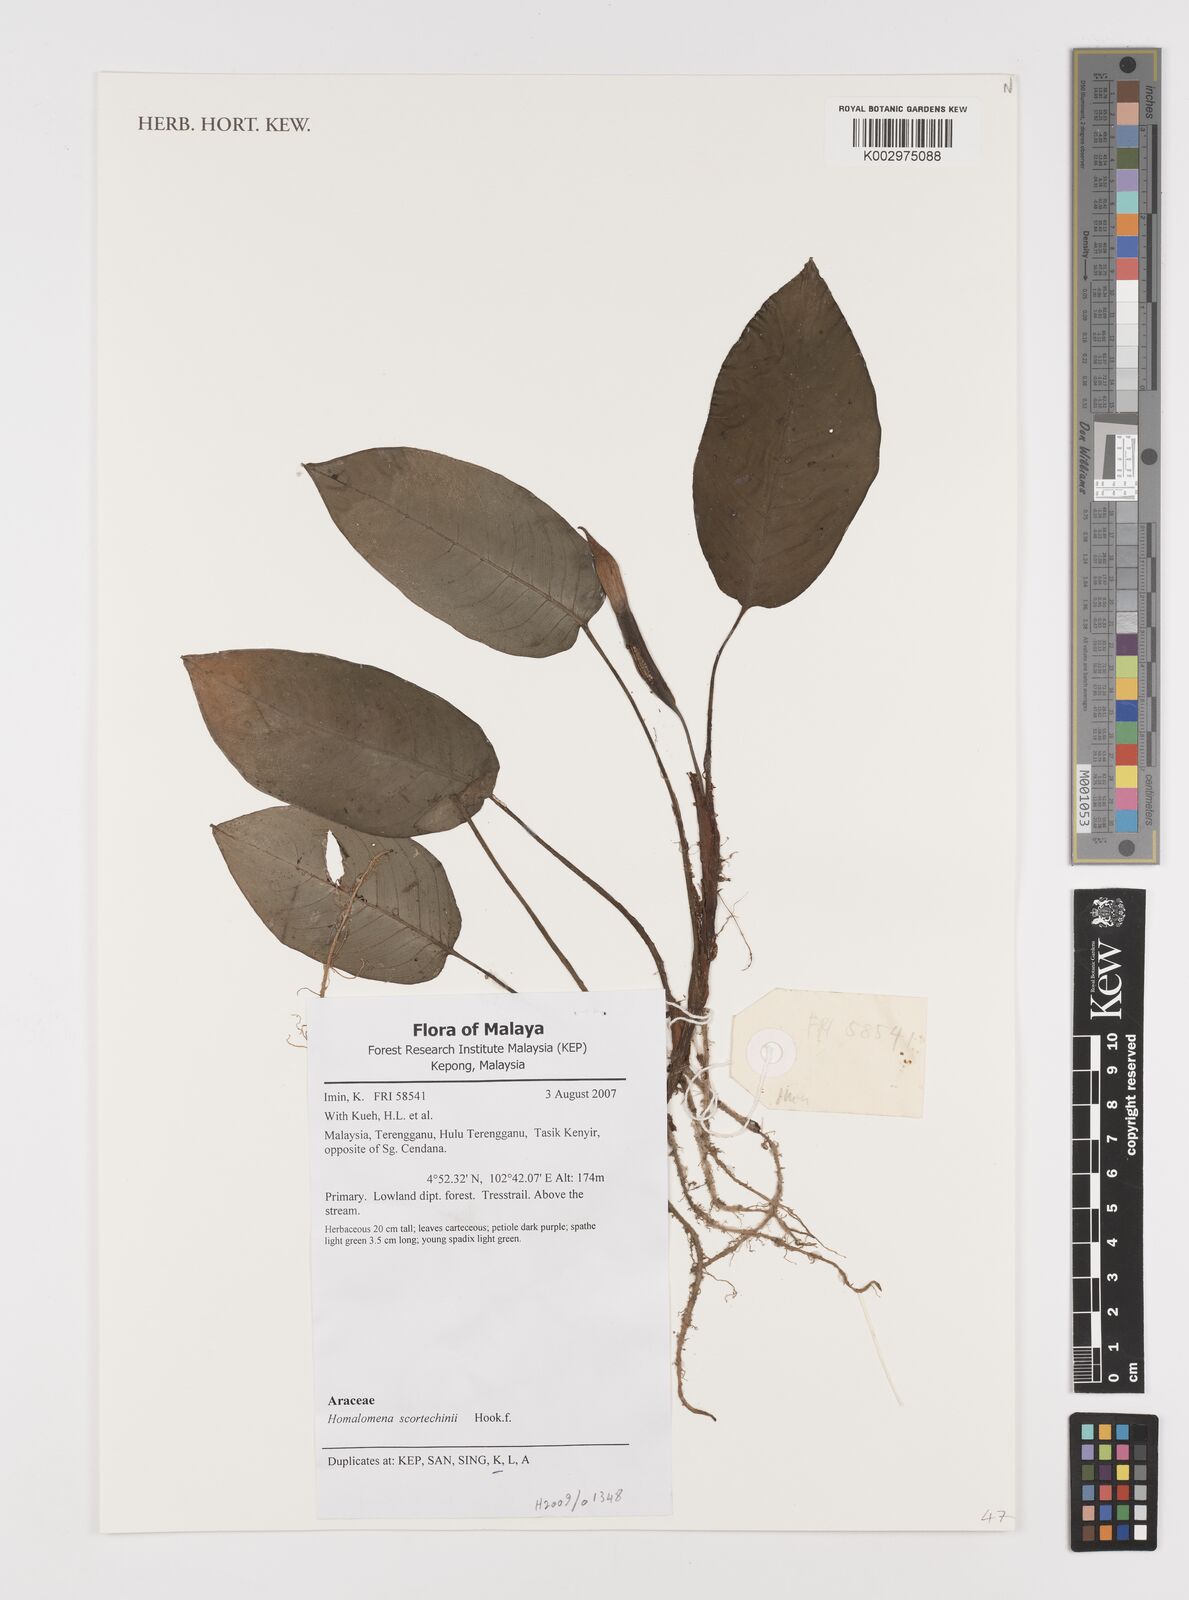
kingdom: Plantae
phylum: Tracheophyta
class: Liliopsida
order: Alismatales
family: Araceae
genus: Homalomena
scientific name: Homalomena scortechinii
